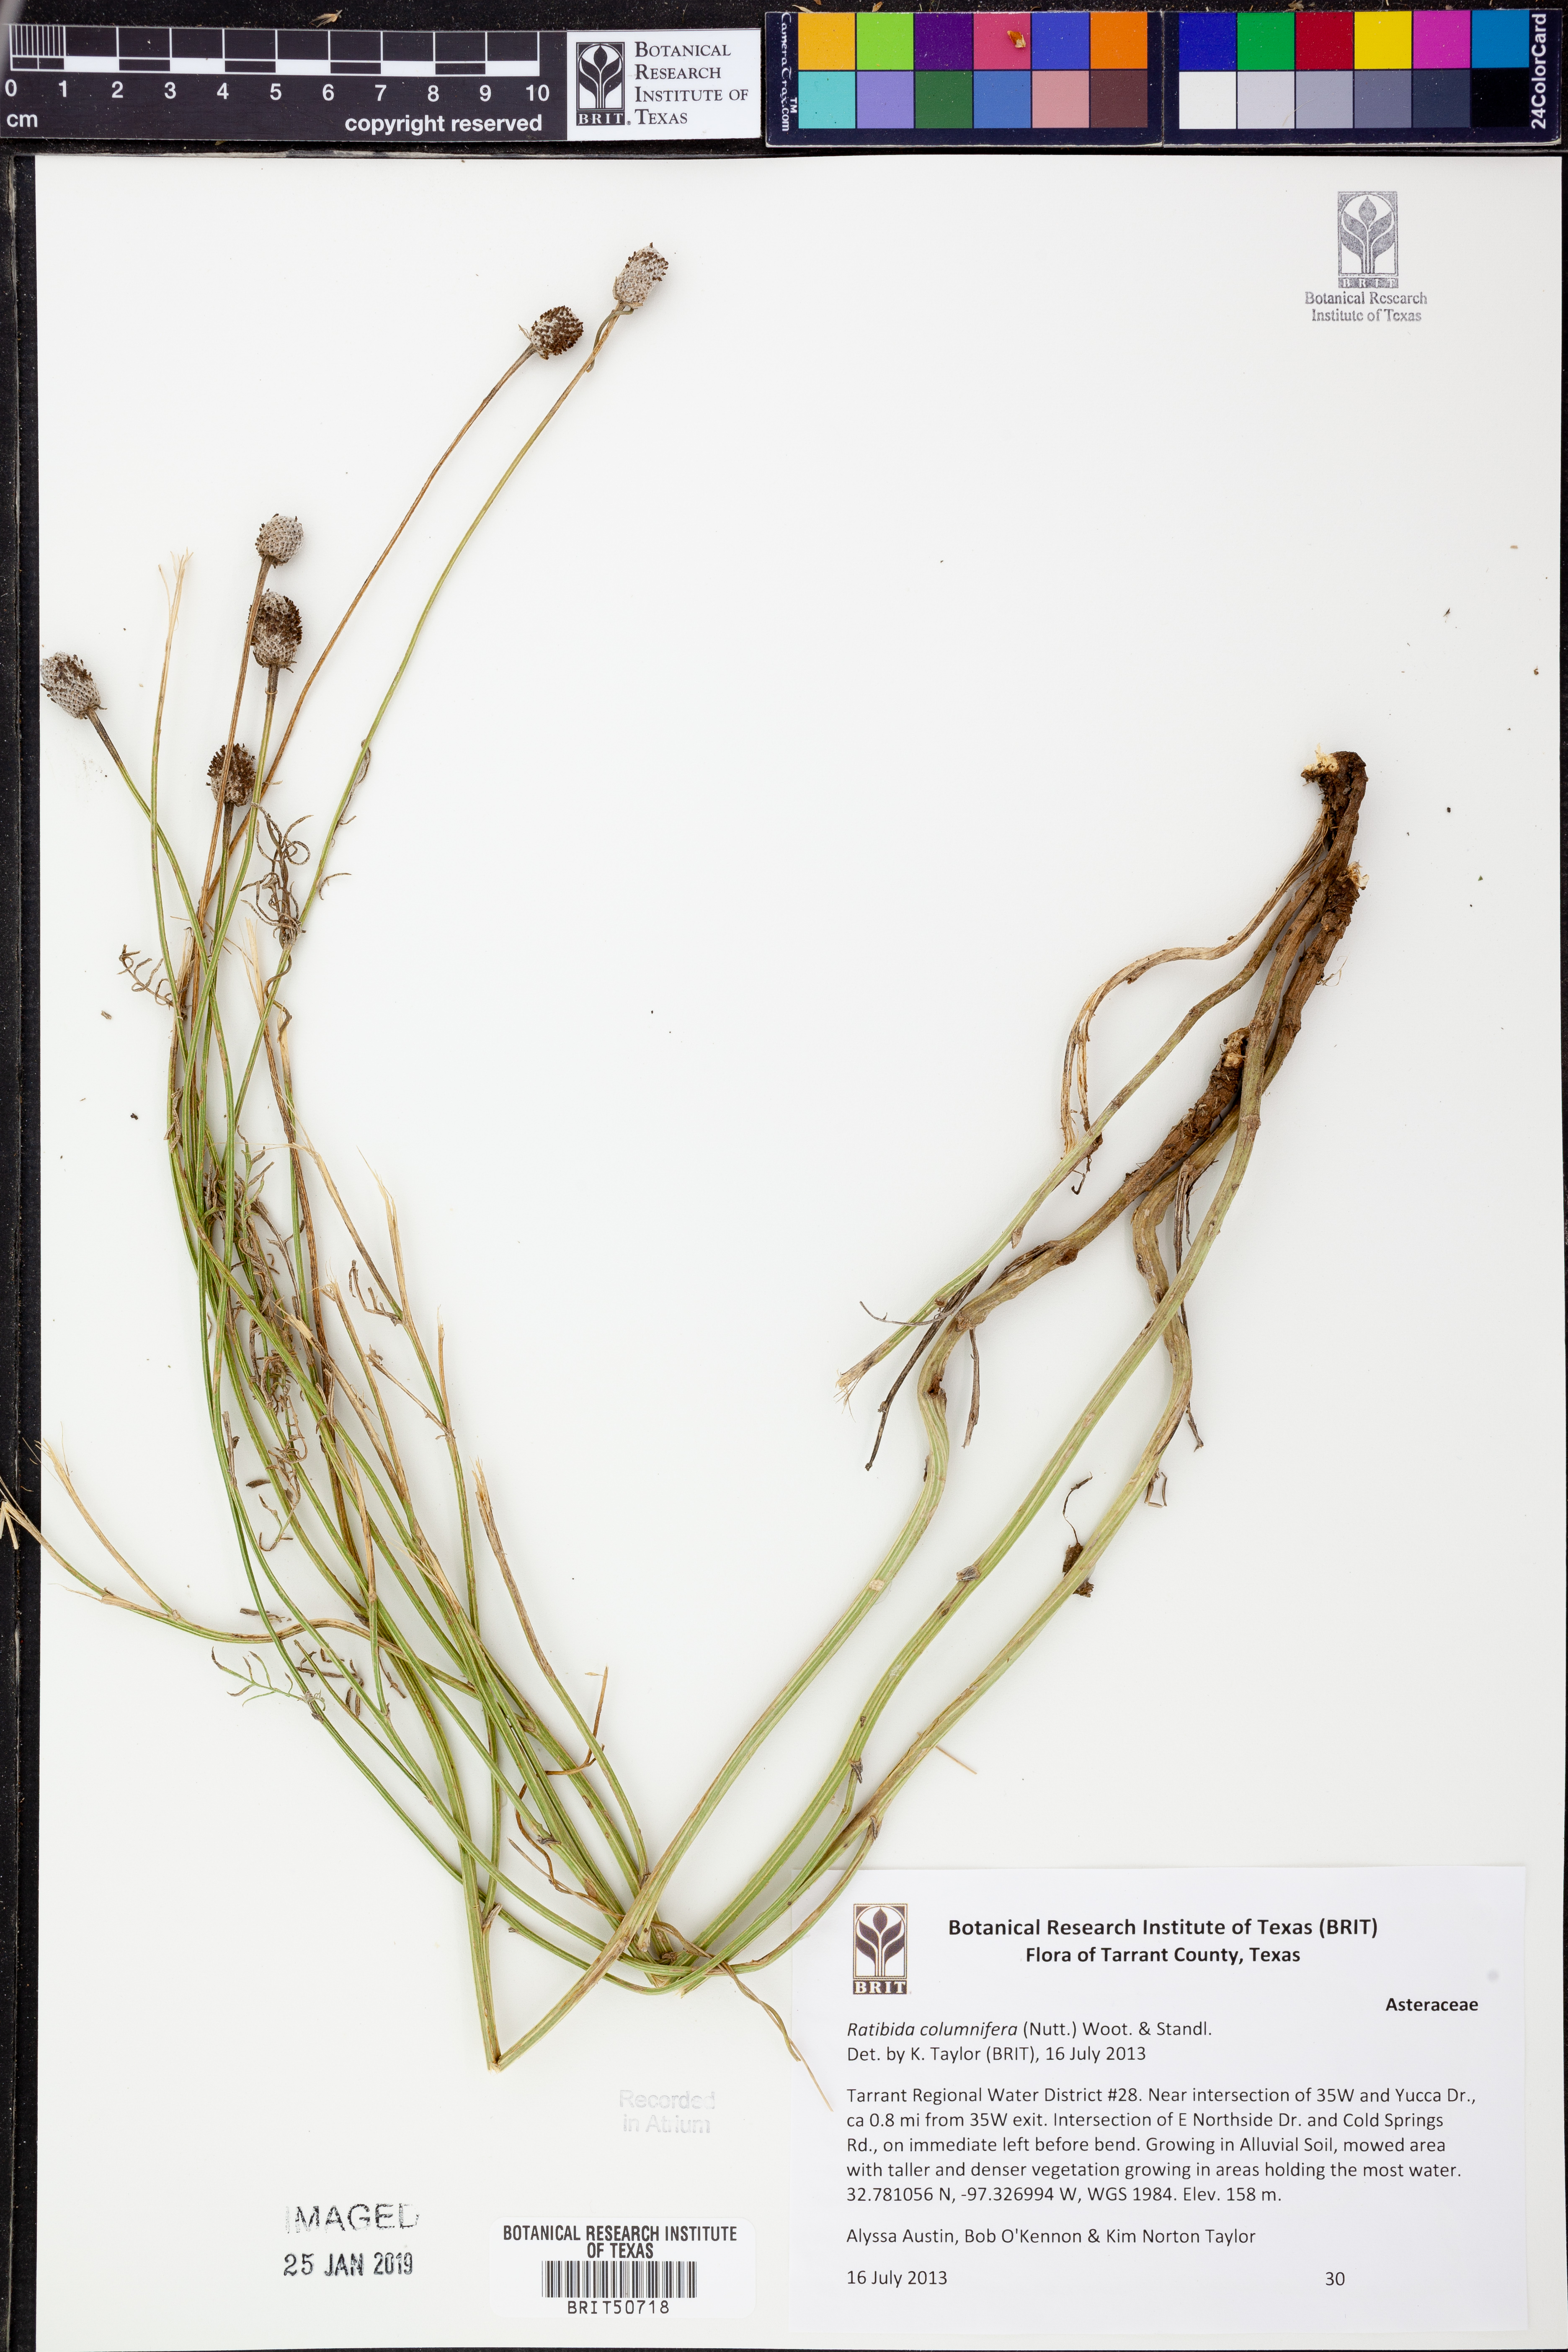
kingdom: Plantae
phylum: Tracheophyta
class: Magnoliopsida
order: Asterales
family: Asteraceae
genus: Ratibida
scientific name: Ratibida columnifera
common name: Prairie coneflower
